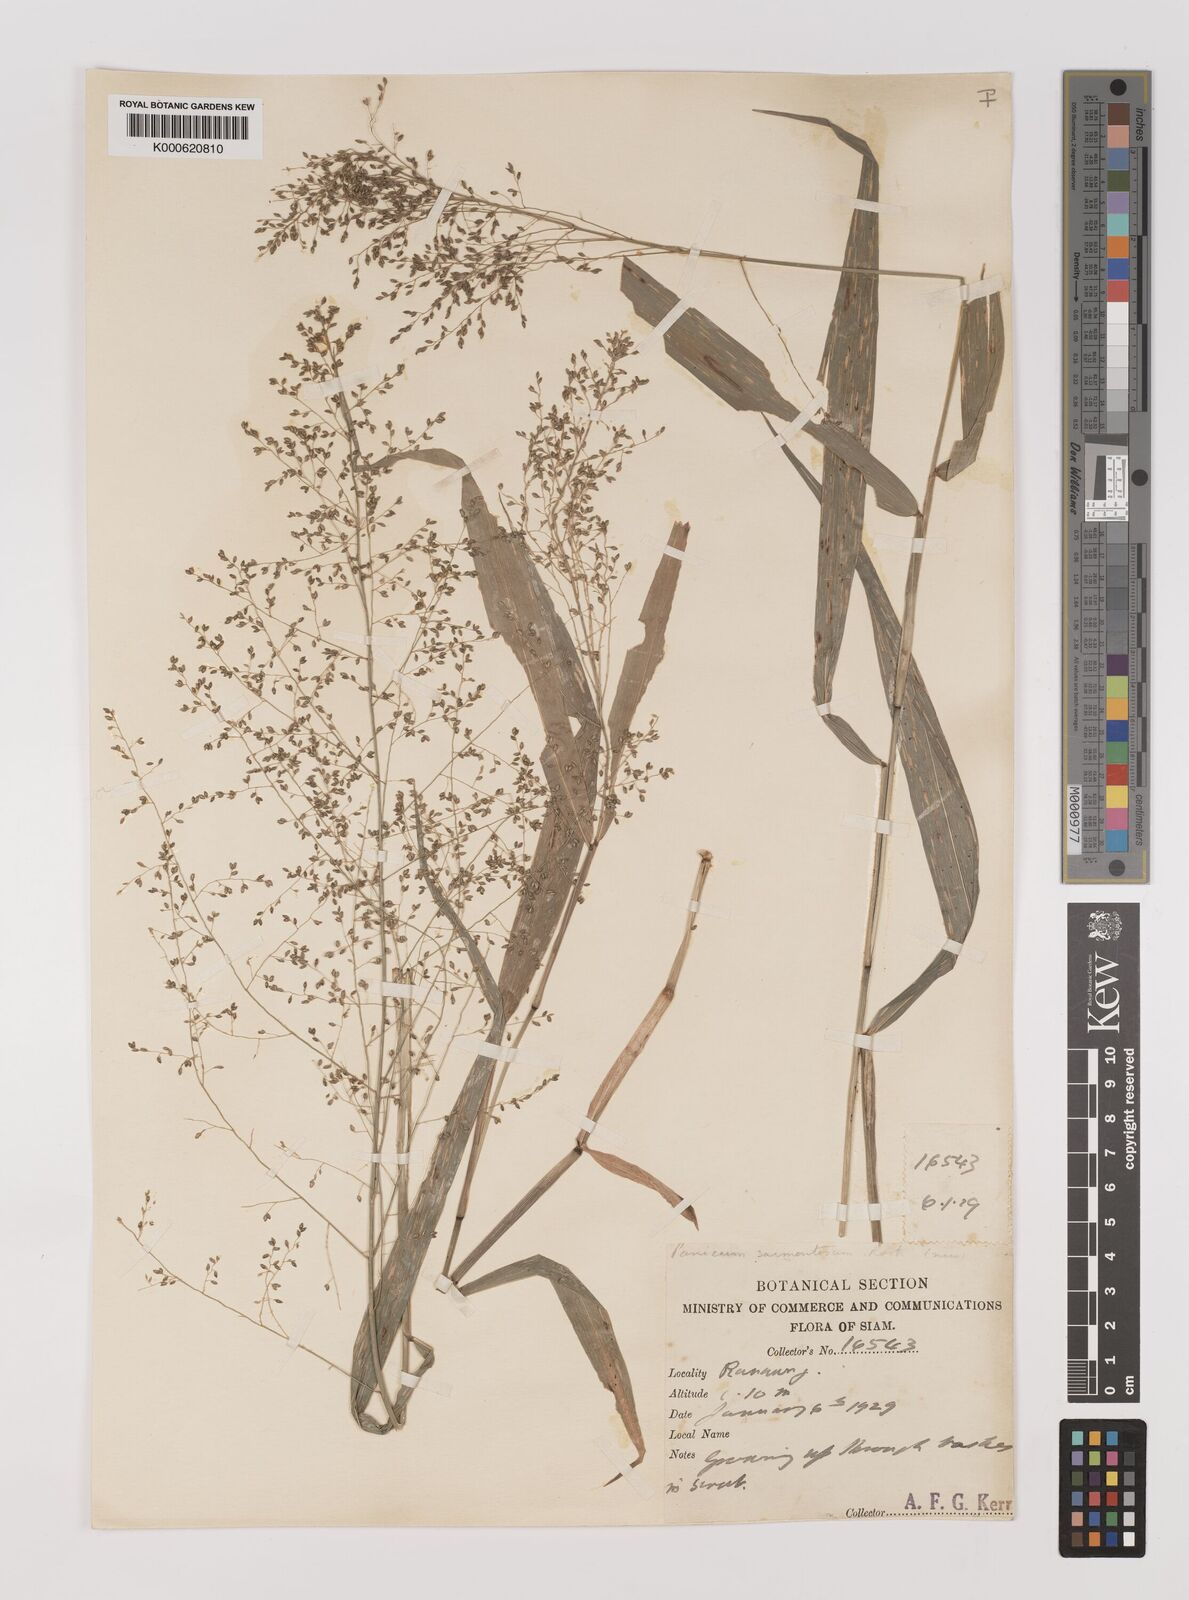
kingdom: Plantae
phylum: Tracheophyta
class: Liliopsida
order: Poales
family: Poaceae
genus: Panicum
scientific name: Panicum sarmentosum
